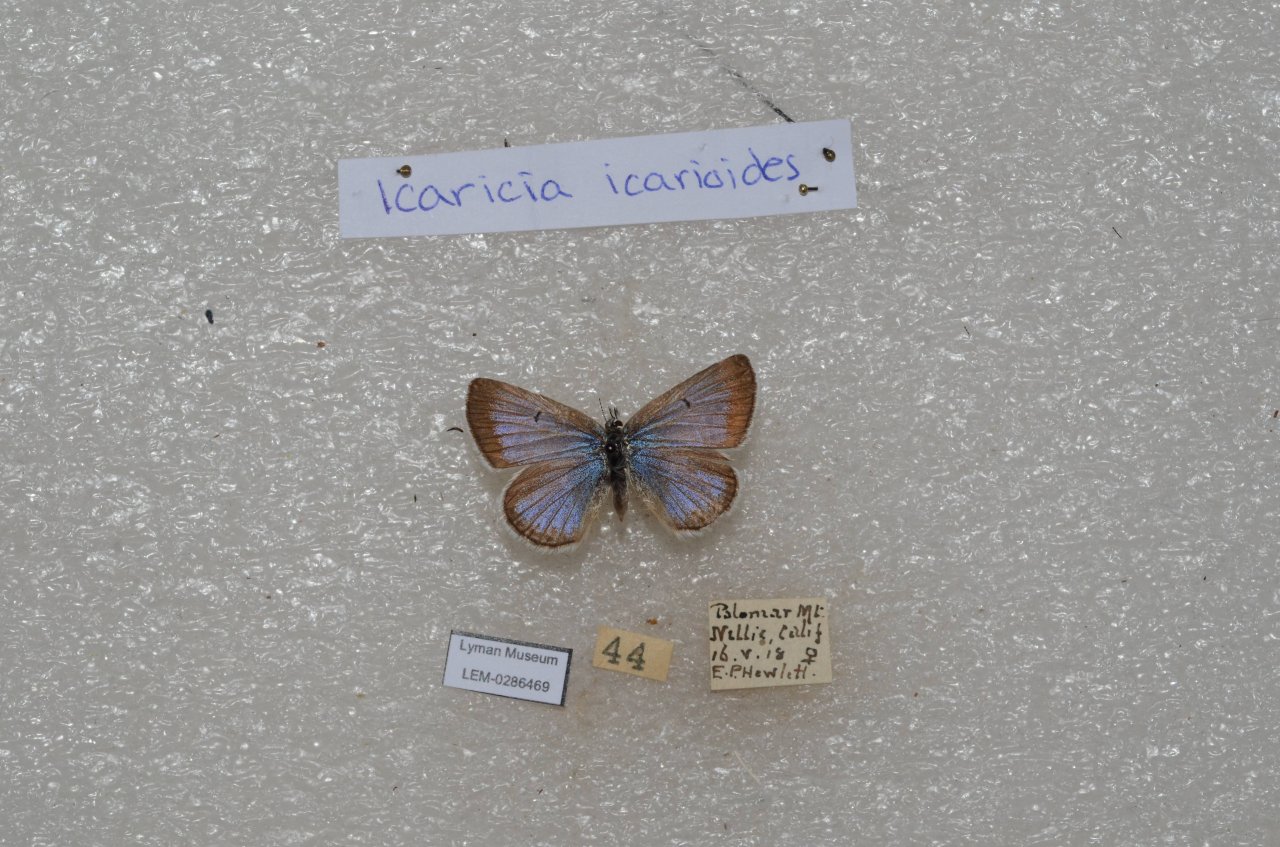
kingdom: Animalia
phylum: Arthropoda
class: Insecta
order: Lepidoptera
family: Lycaenidae
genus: Icaricia
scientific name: Icaricia icarioides
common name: Boisduval's Blue
